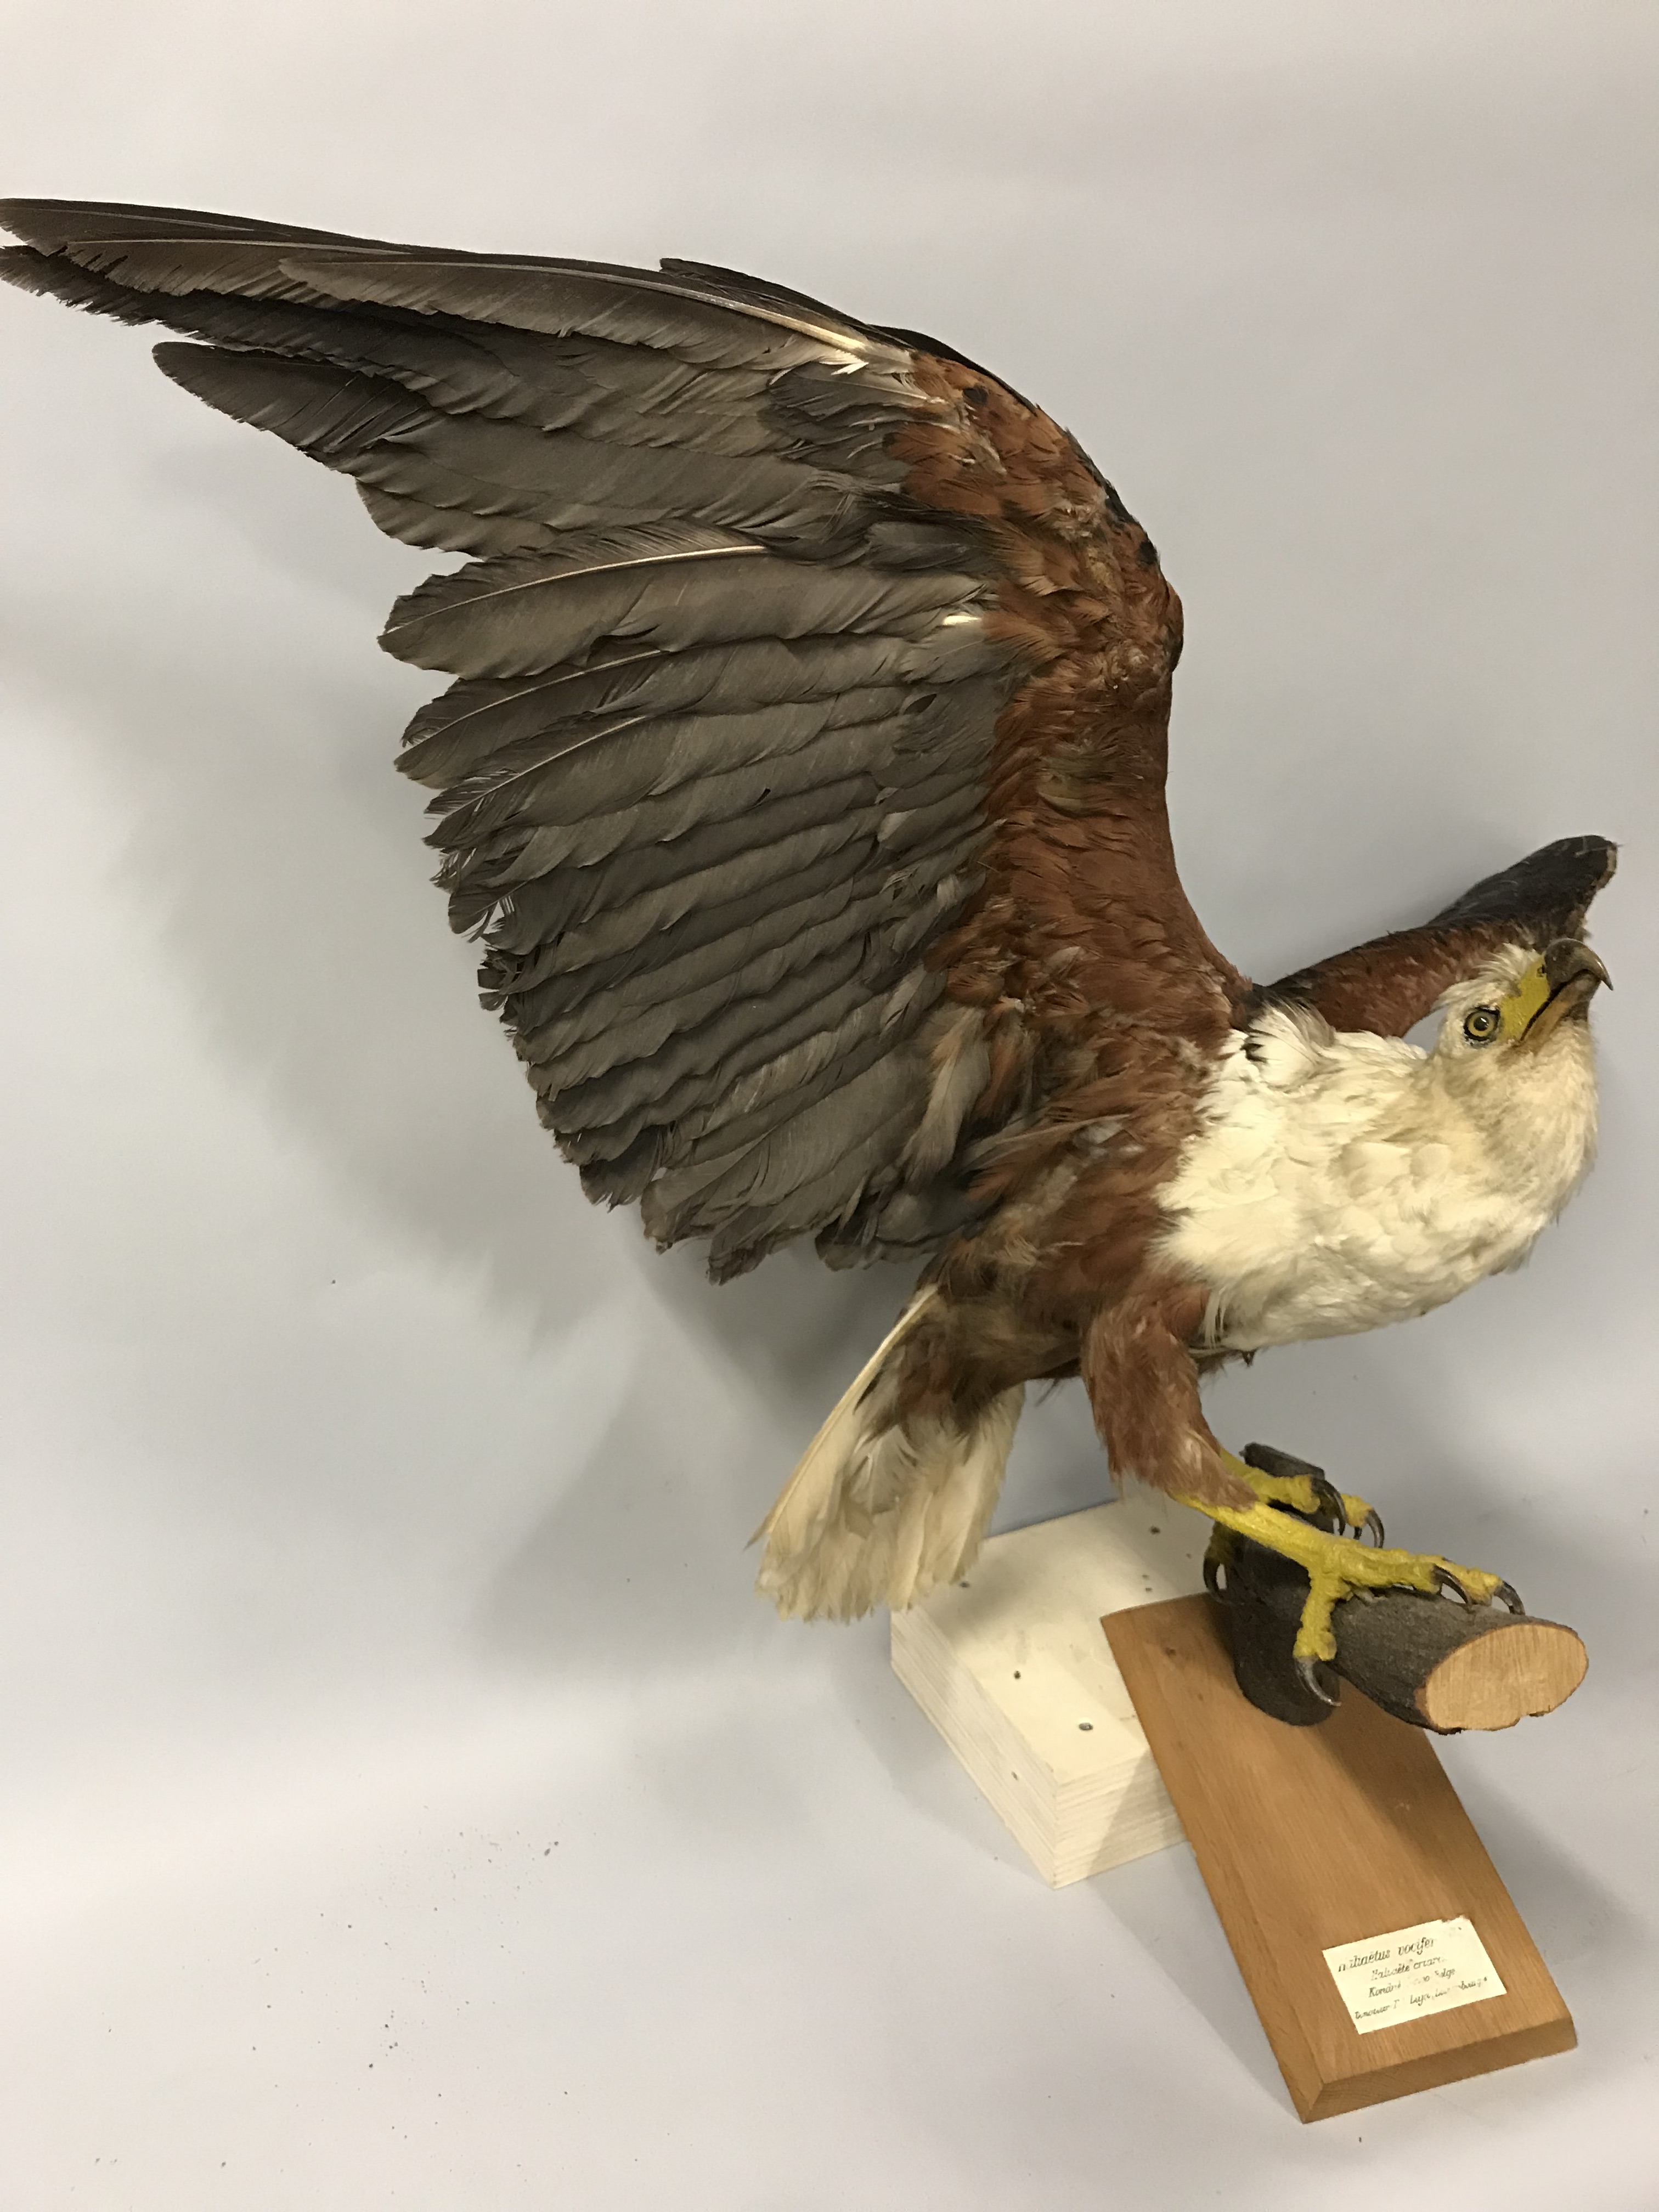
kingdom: Animalia
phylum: Chordata
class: Aves
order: Accipitriformes
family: Accipitridae
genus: Haliaeetus
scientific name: Haliaeetus vocifer
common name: African fish eagle
